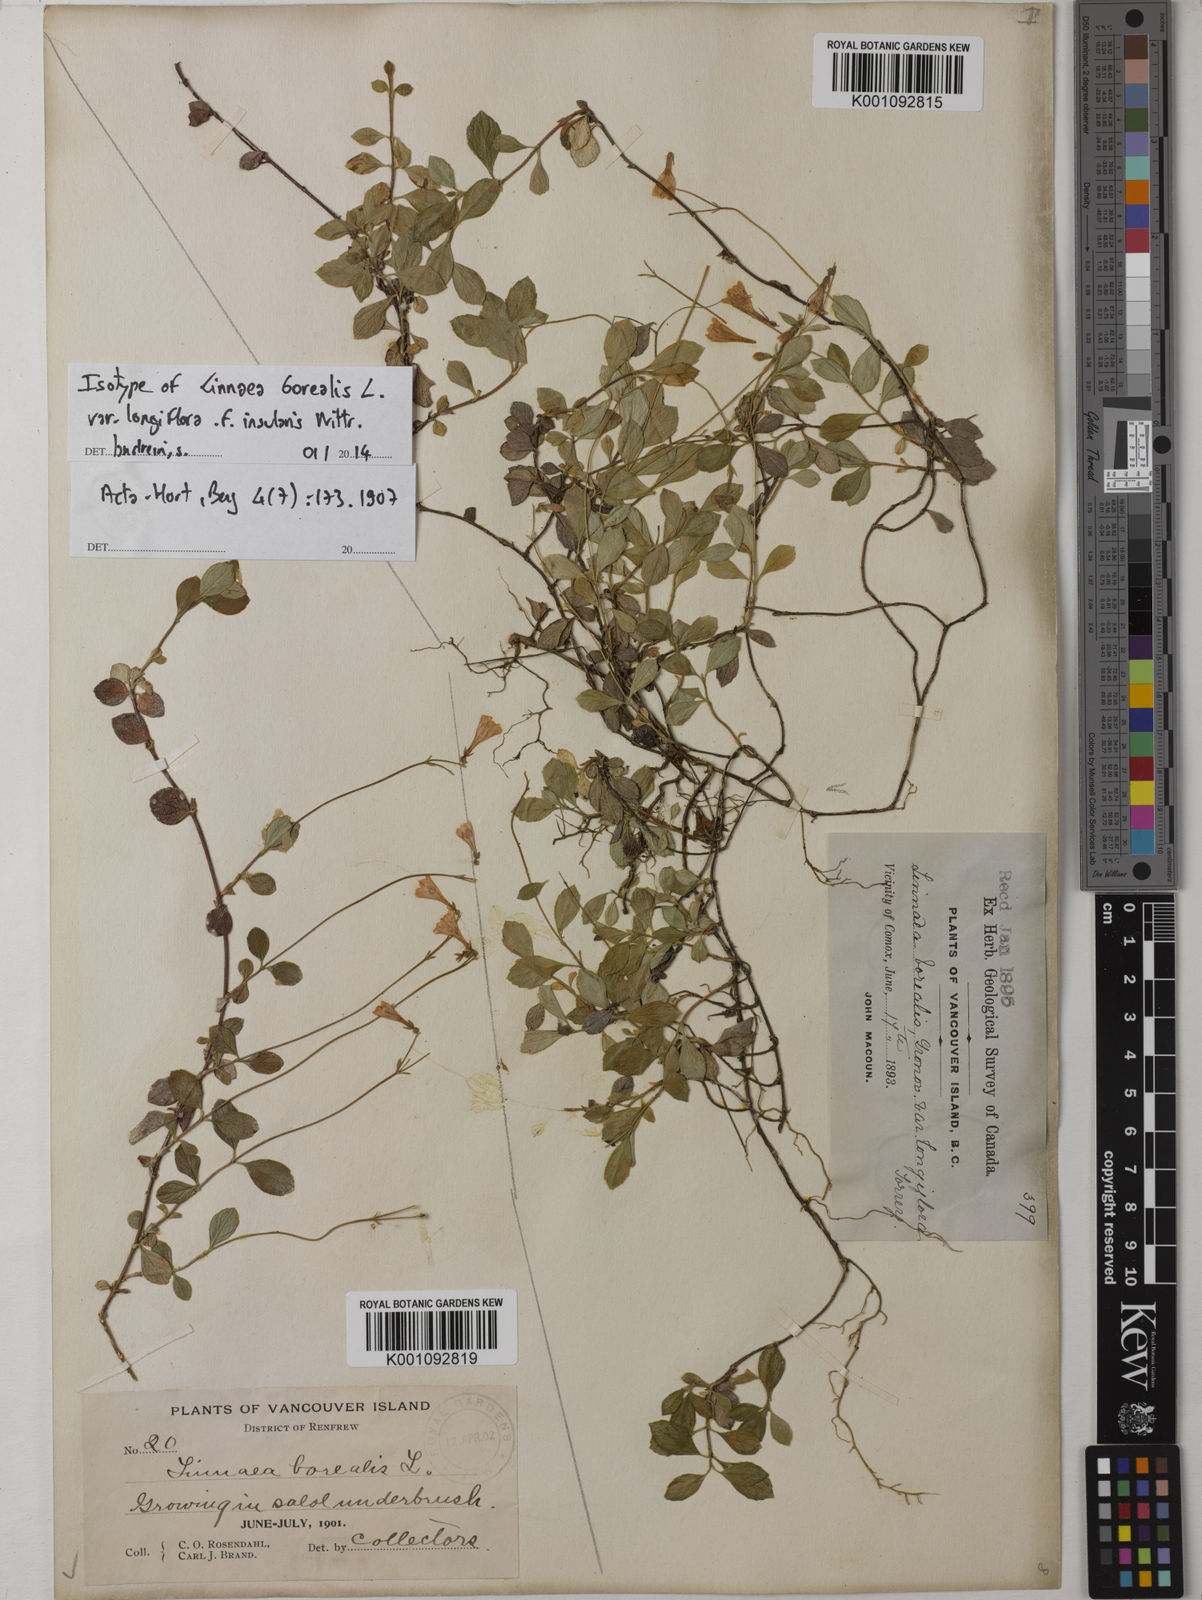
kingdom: Plantae
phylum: Tracheophyta
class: Magnoliopsida
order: Dipsacales
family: Caprifoliaceae
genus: Linnaea
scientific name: Linnaea borealis
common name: Twinflower
